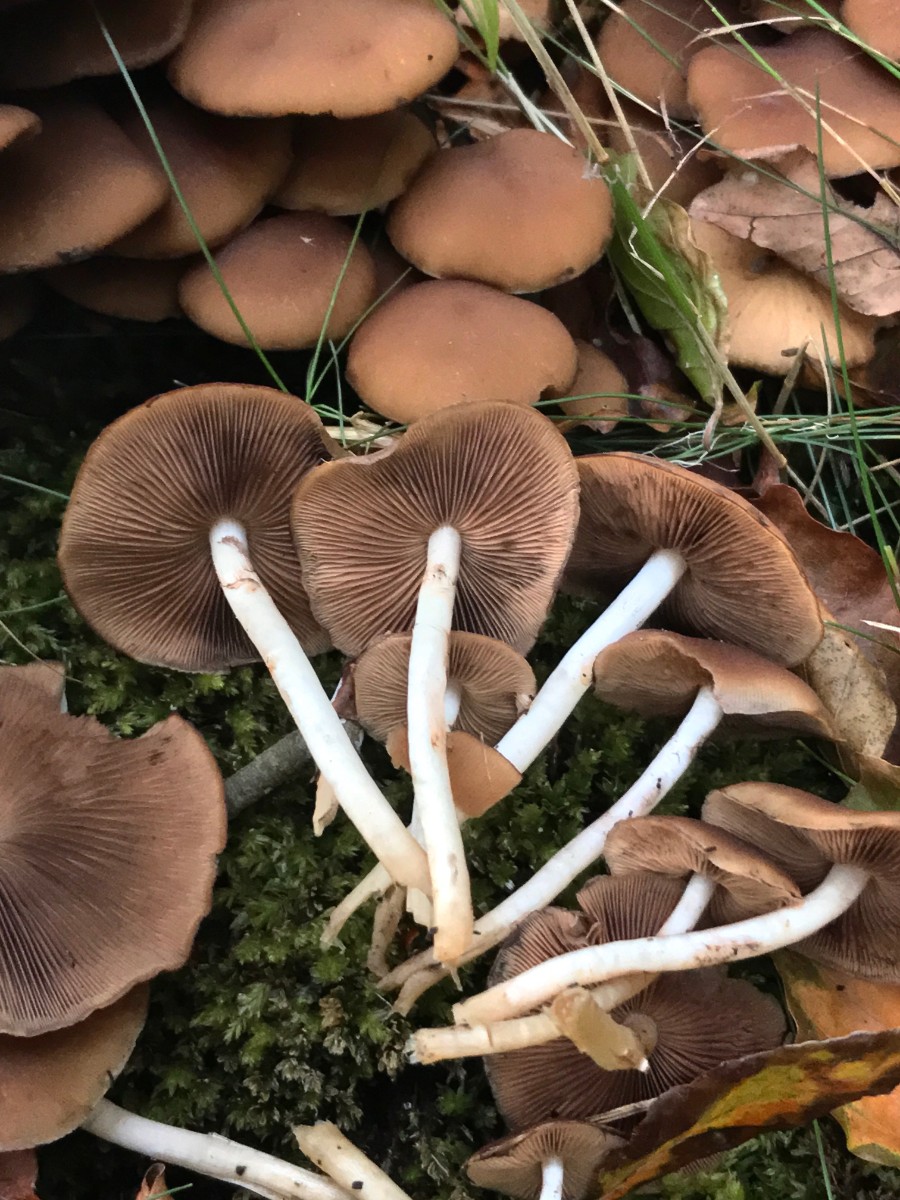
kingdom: Fungi
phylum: Basidiomycota
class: Agaricomycetes
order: Agaricales
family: Psathyrellaceae
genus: Psathyrella
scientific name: Psathyrella piluliformis
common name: lysstokket mørkhat
